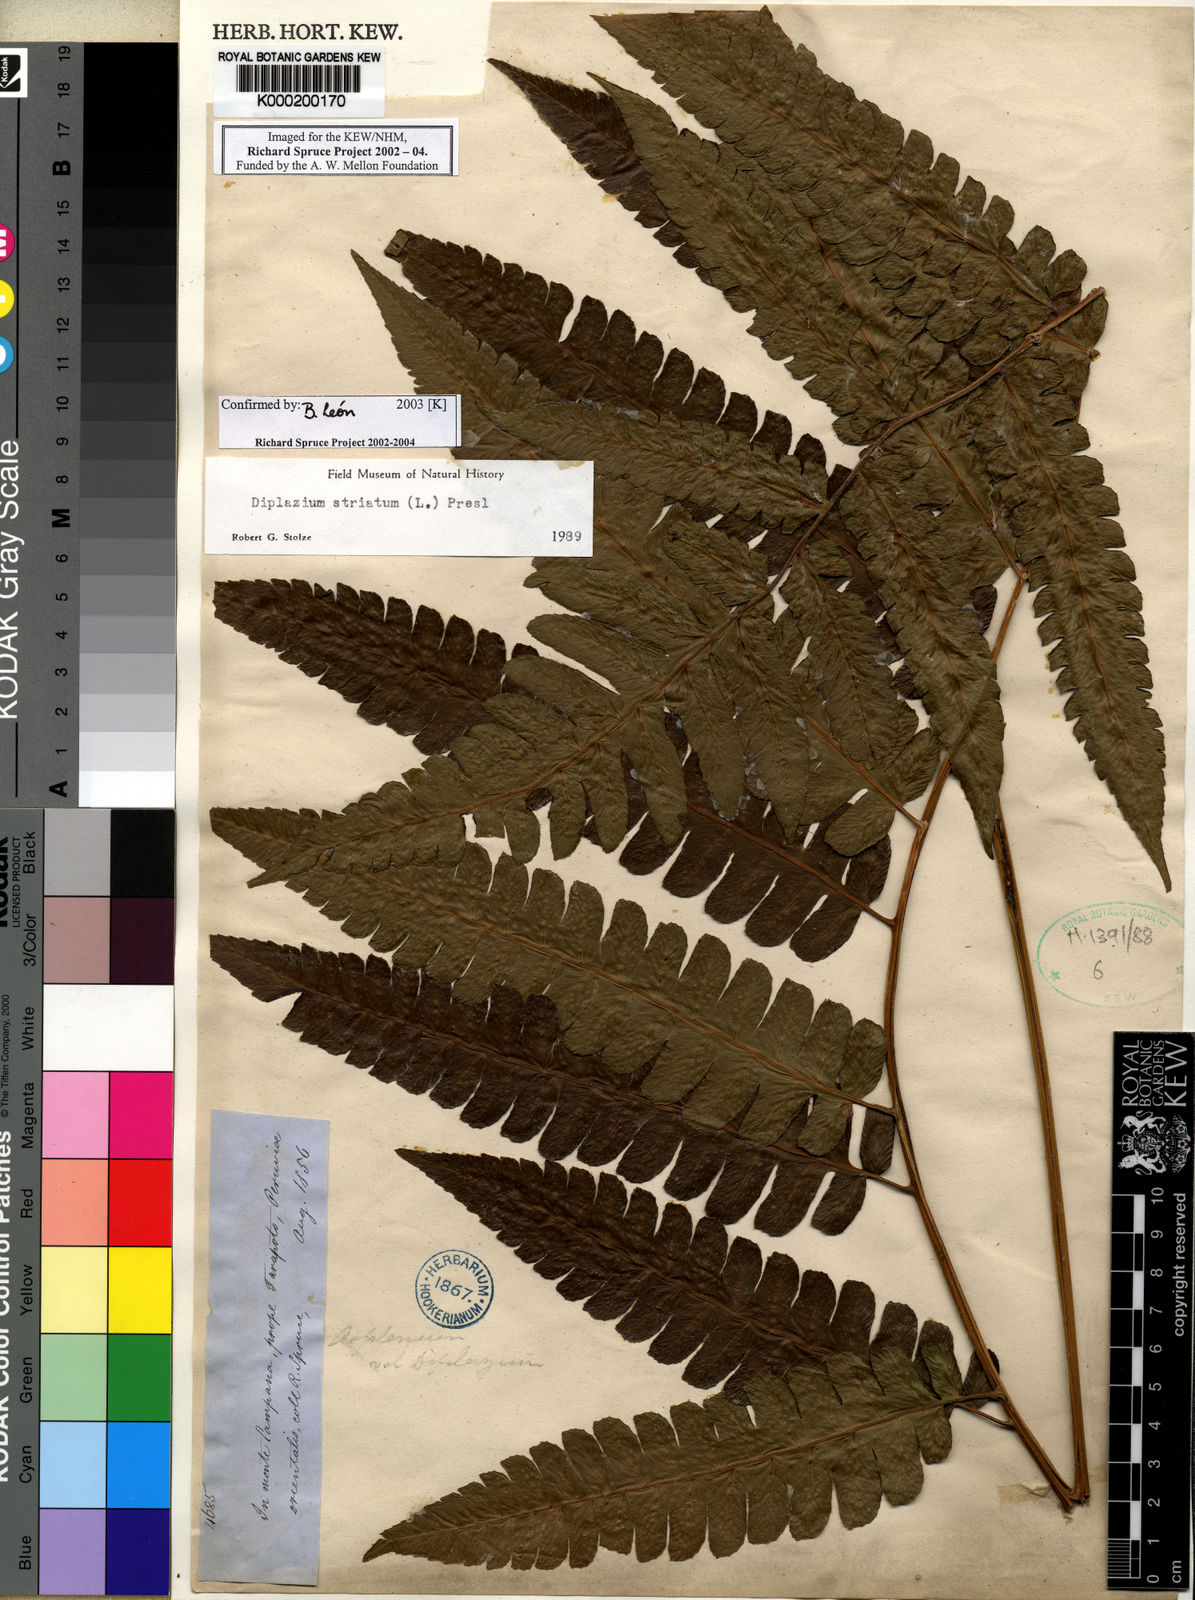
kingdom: Plantae
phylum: Tracheophyta
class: Polypodiopsida
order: Polypodiales
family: Athyriaceae
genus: Diplazium
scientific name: Diplazium striatum
